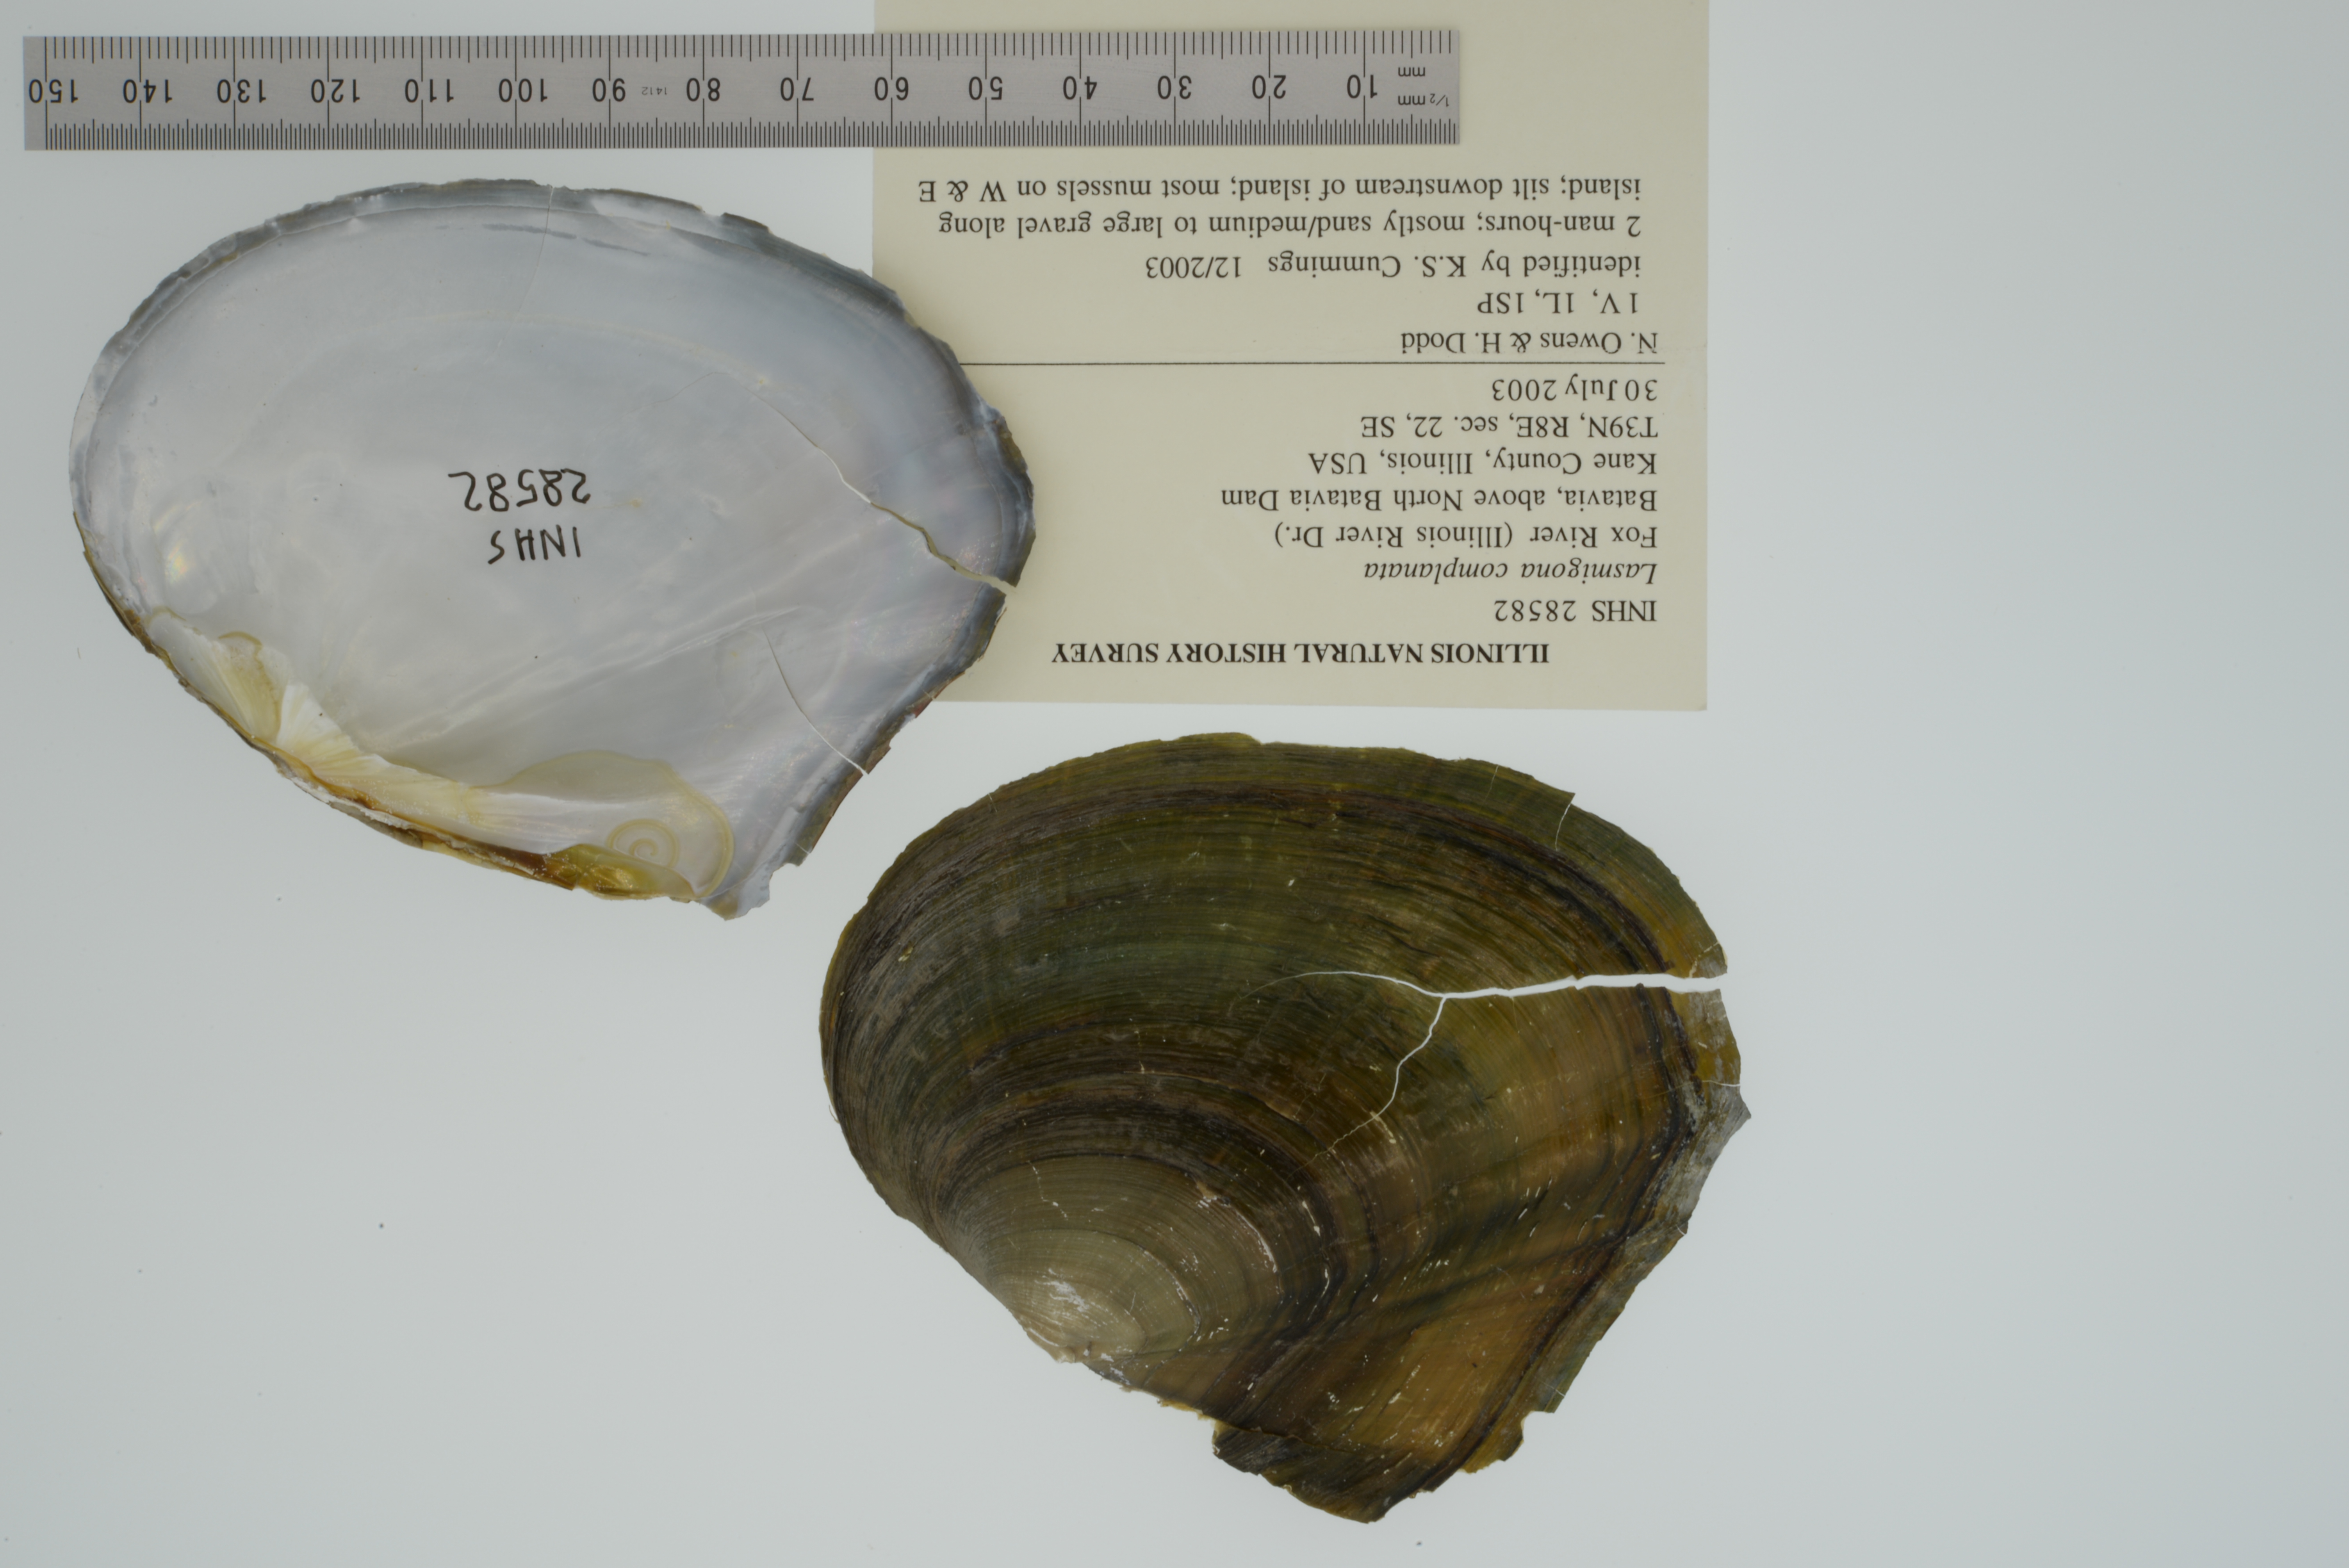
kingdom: Animalia
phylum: Mollusca
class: Bivalvia
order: Unionida
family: Unionidae
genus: Lasmigona
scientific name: Lasmigona complanata
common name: White heelsplitter
